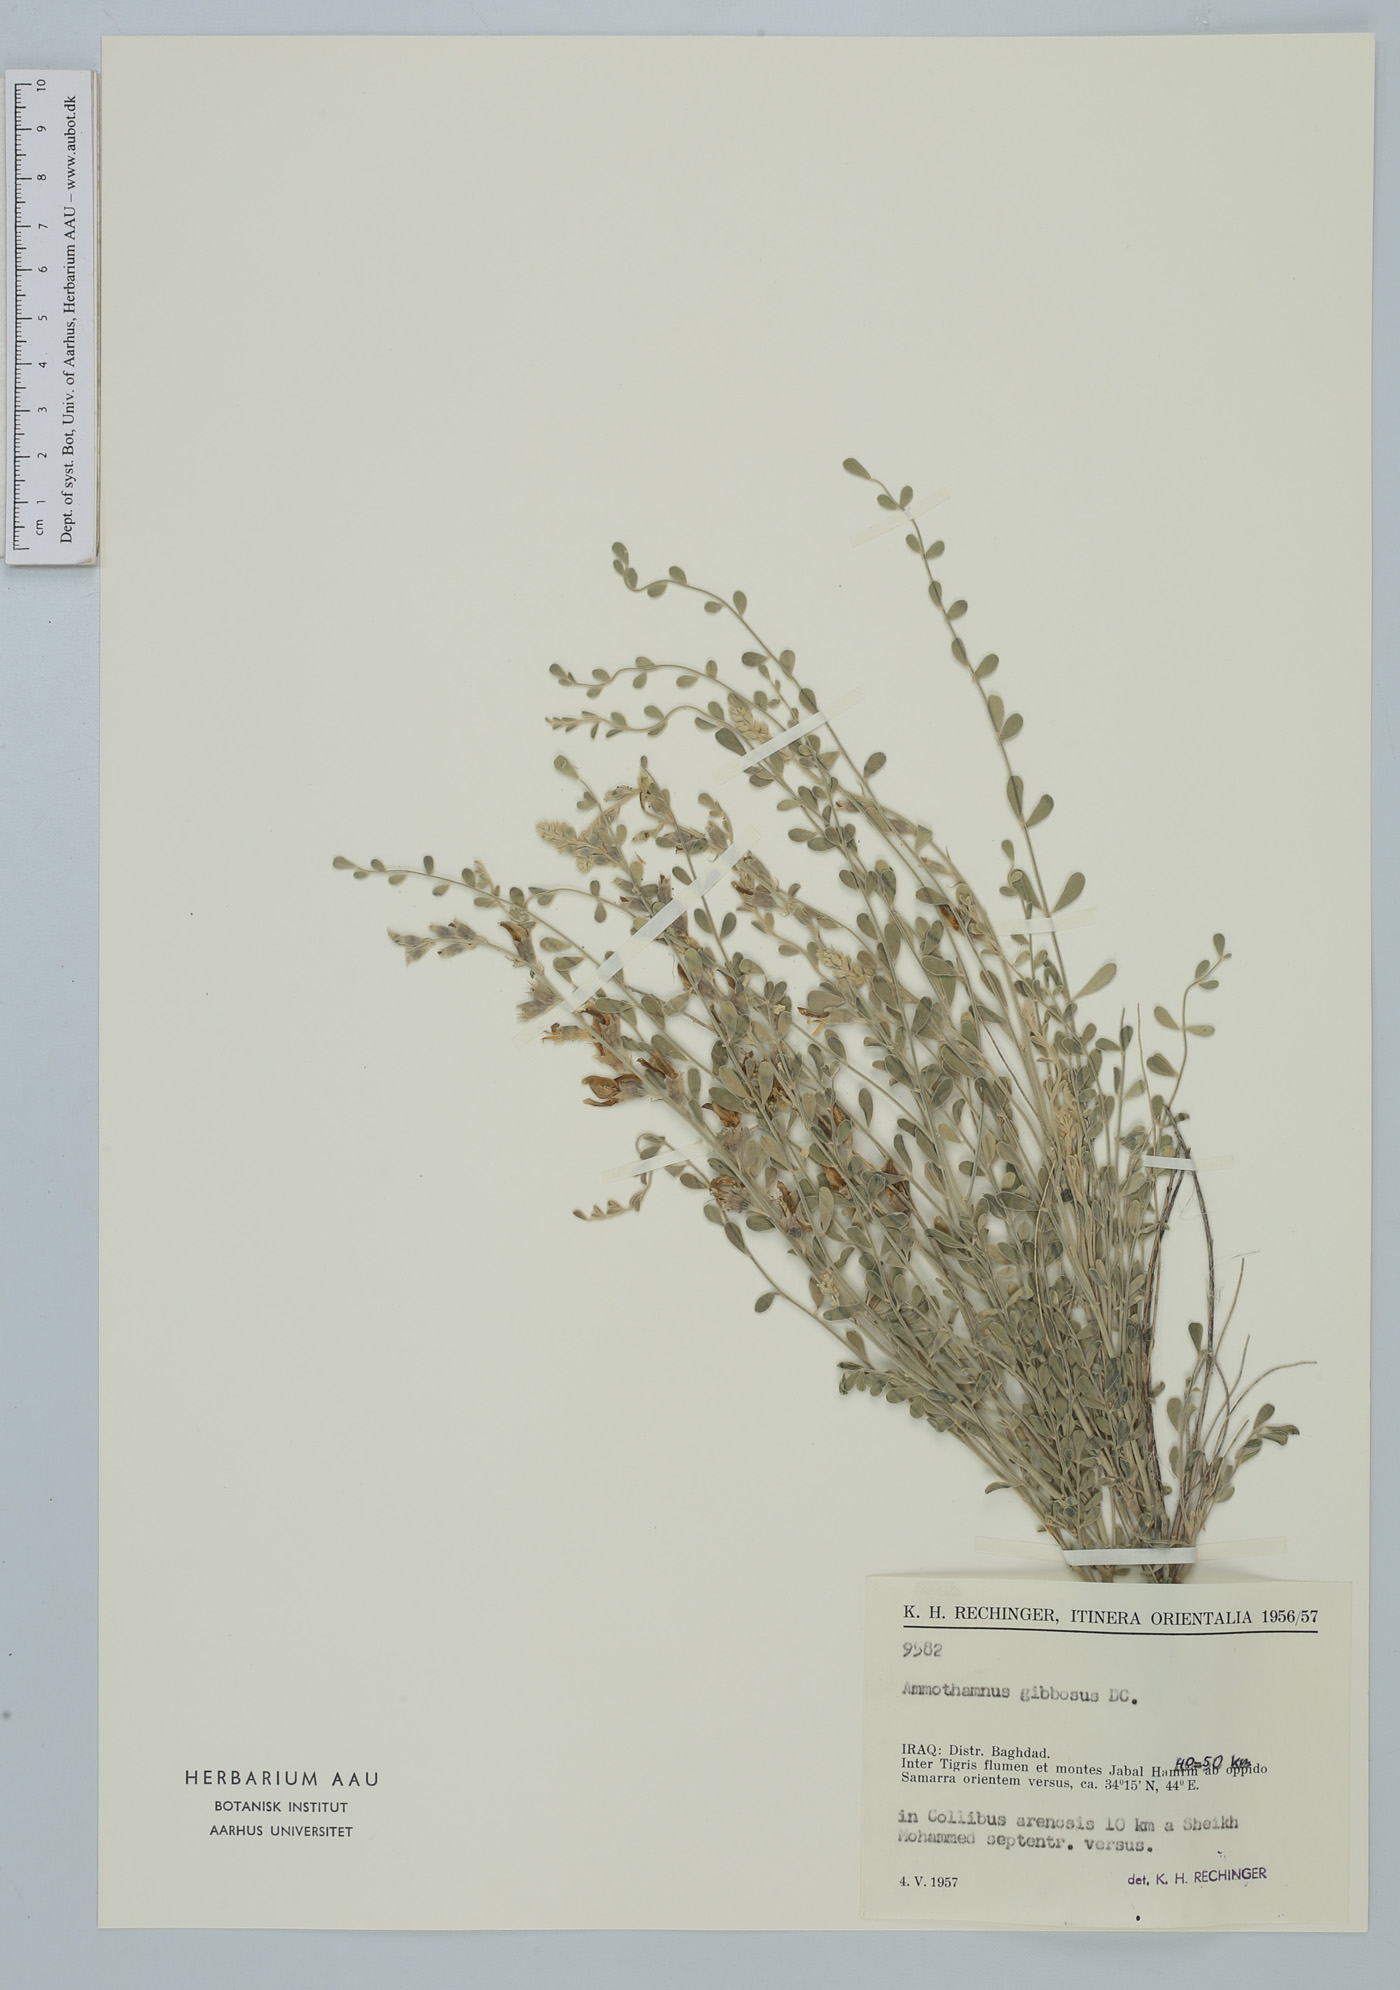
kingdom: Plantae
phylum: Tracheophyta
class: Magnoliopsida
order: Fabales
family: Fabaceae
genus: Sophora
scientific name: Sophora gibbosa
